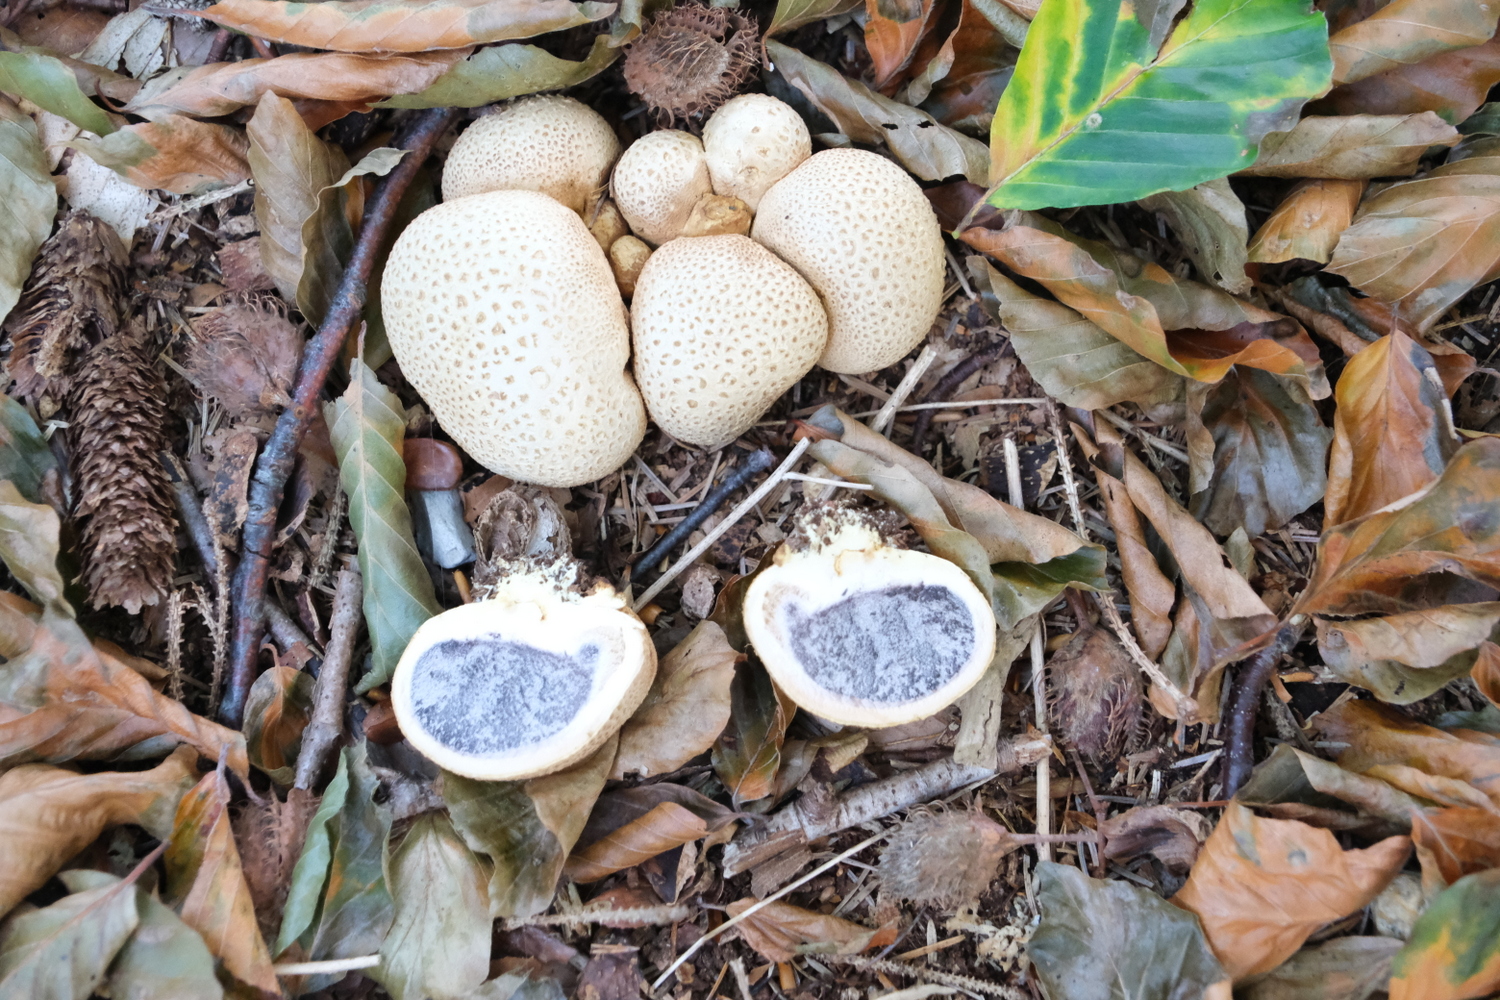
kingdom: Fungi
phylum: Basidiomycota
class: Agaricomycetes
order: Boletales
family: Sclerodermataceae
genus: Scleroderma
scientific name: Scleroderma citrinum
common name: almindelig bruskbold
